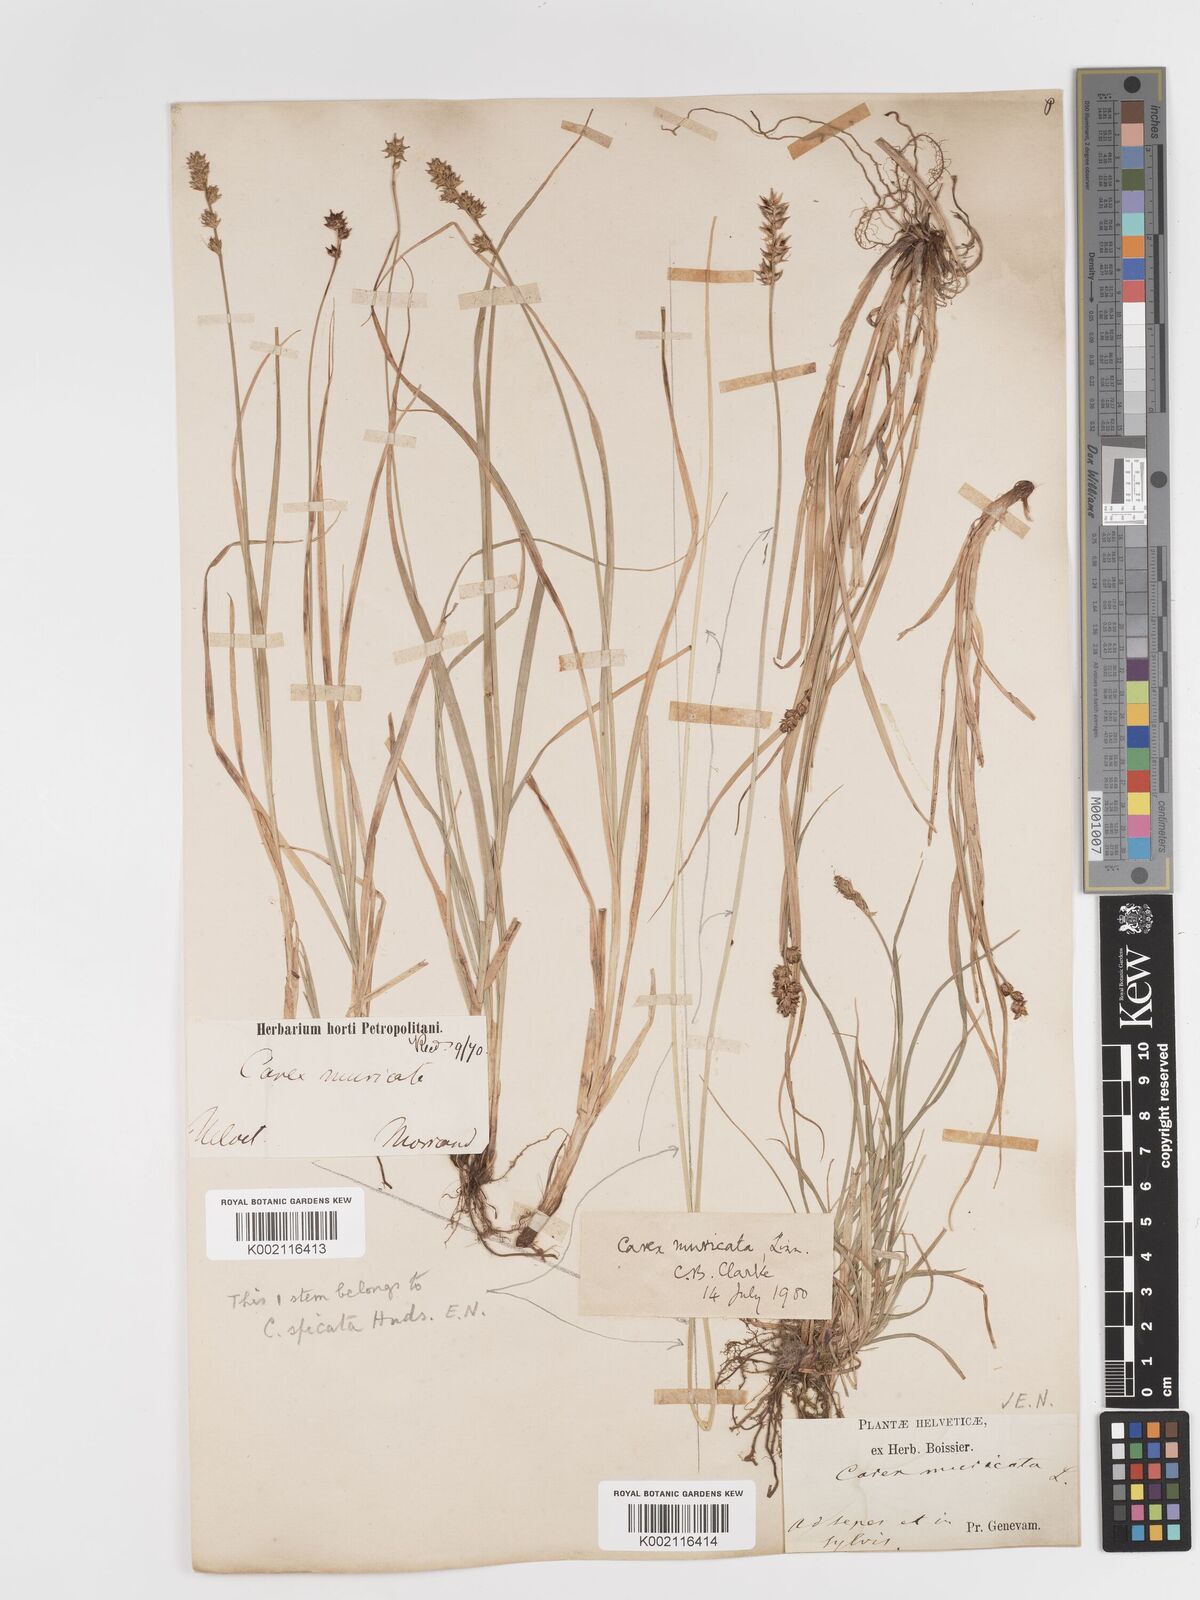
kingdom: Plantae
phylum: Tracheophyta
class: Liliopsida
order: Poales
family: Cyperaceae
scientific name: Cyperaceae
